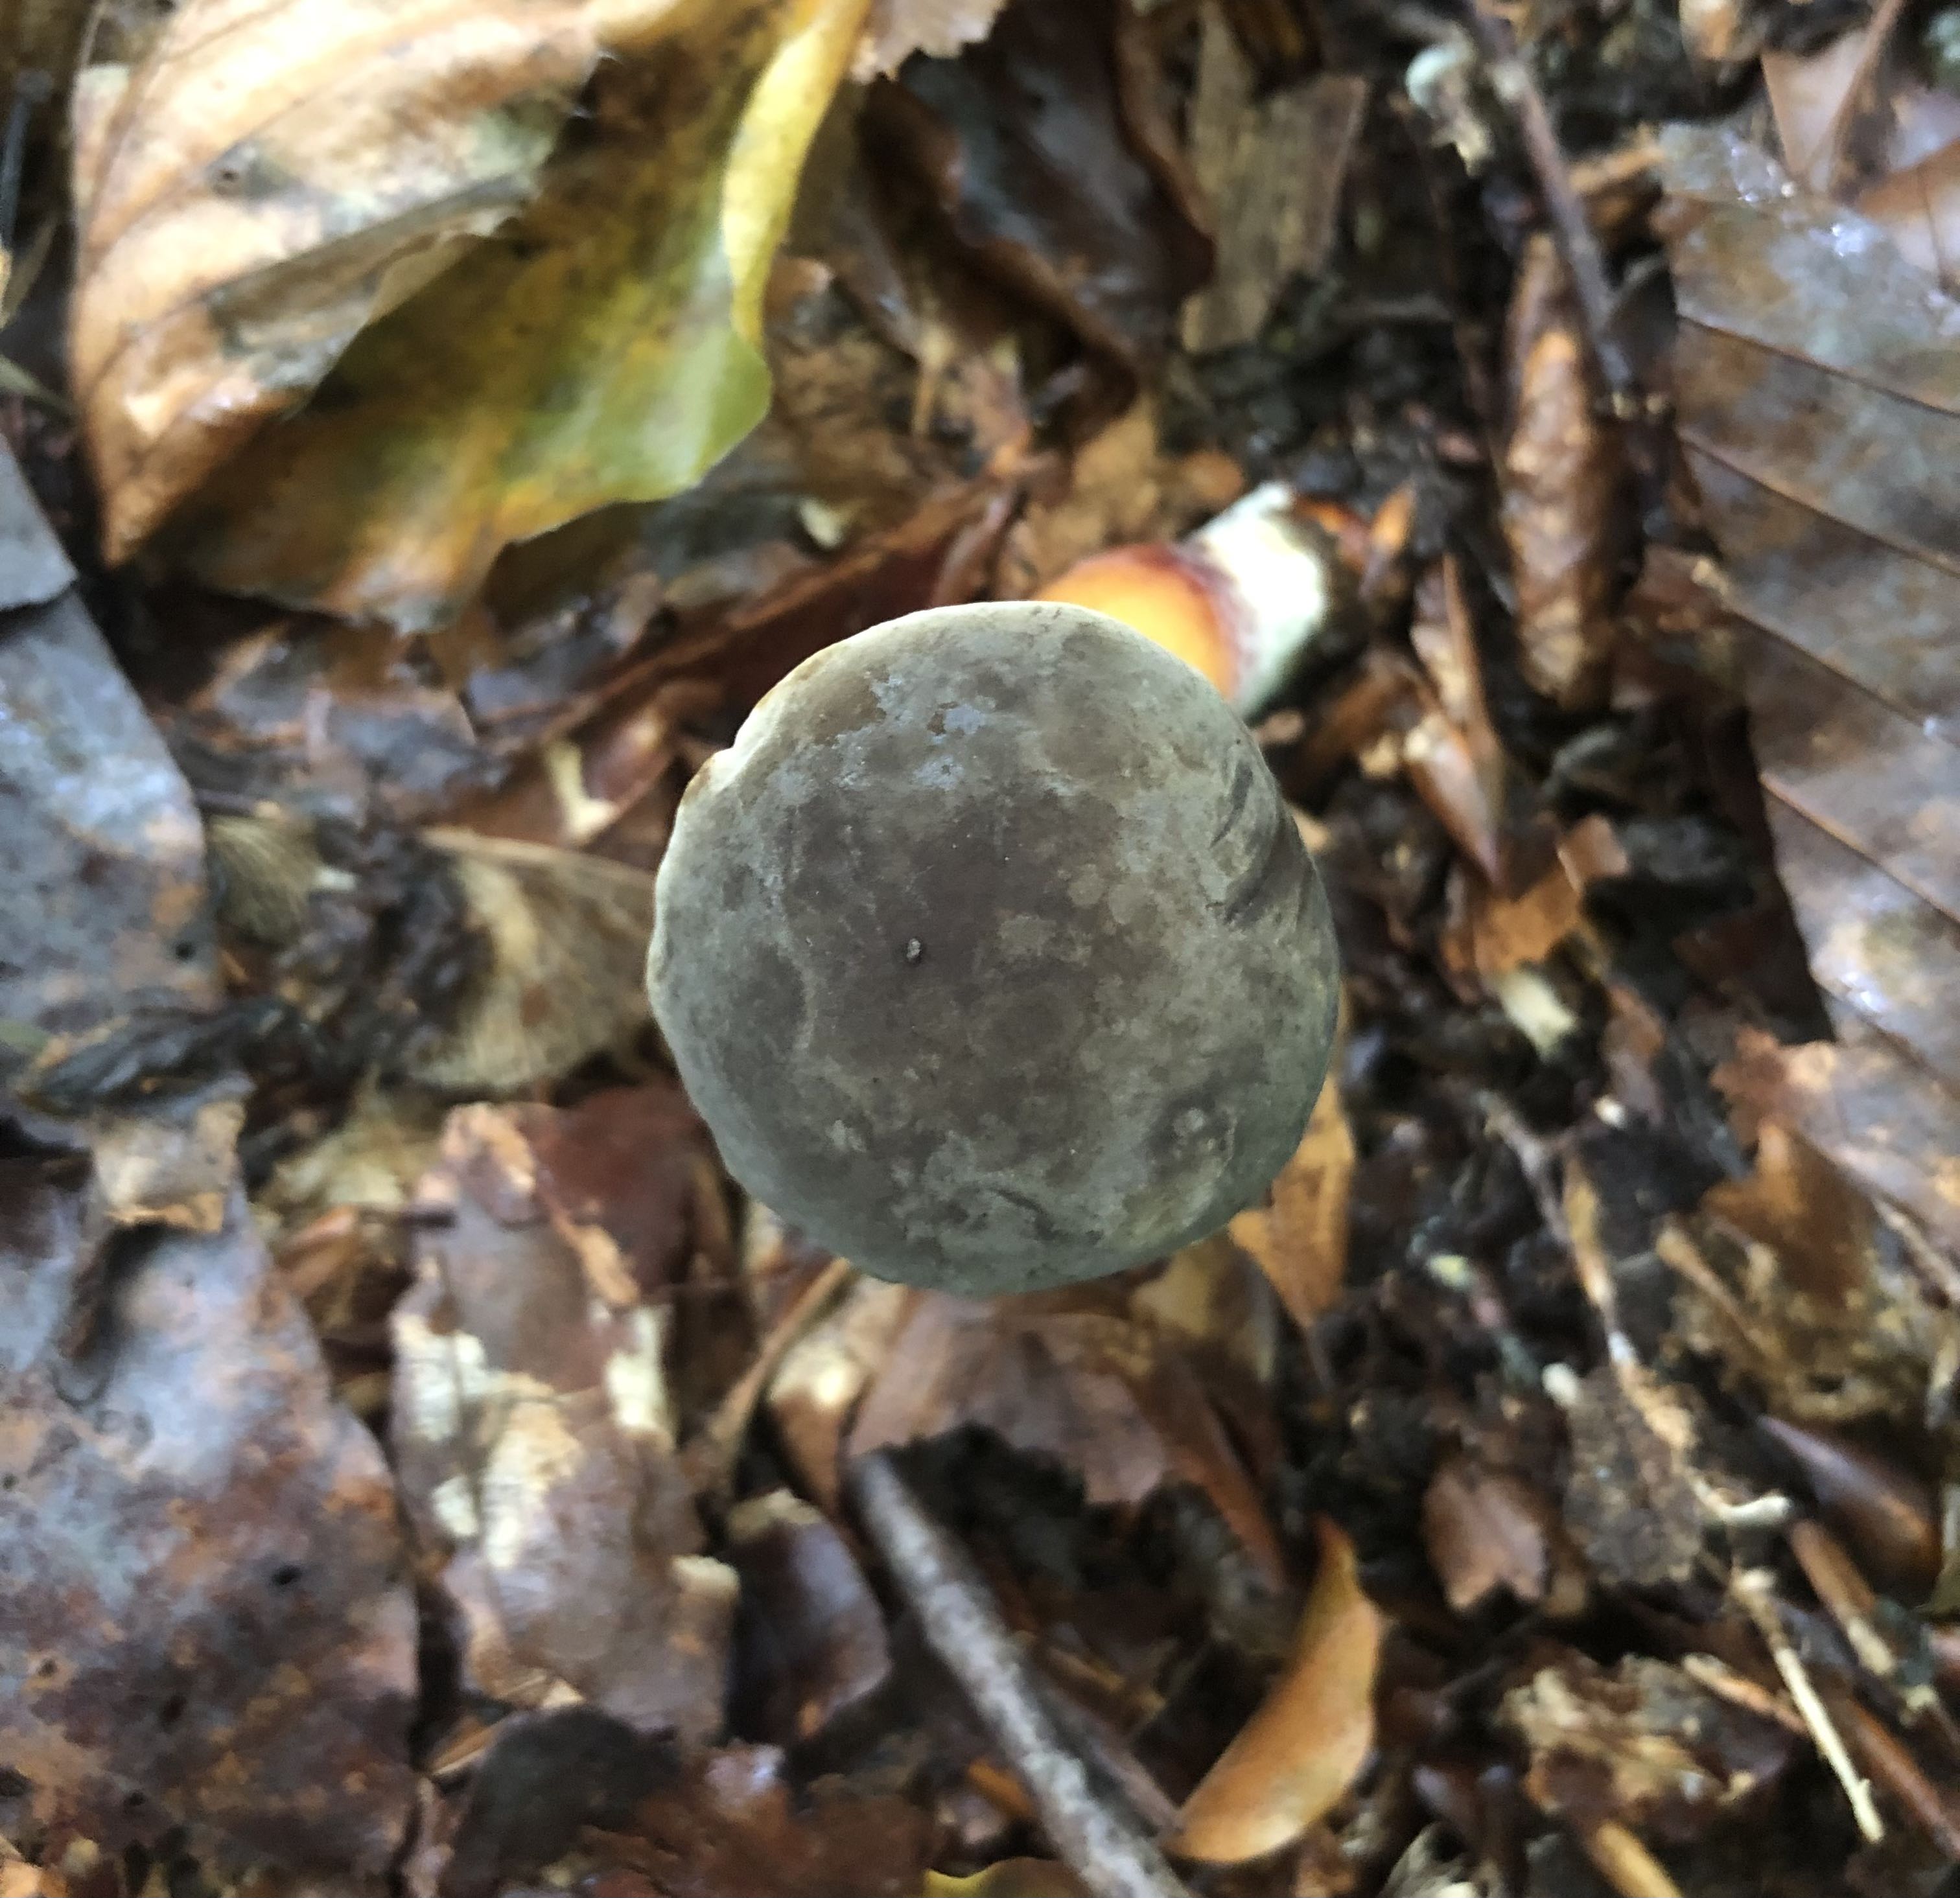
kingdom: Fungi
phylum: Basidiomycota
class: Agaricomycetes
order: Boletales
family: Boletaceae
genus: Xerocomellus
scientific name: Xerocomellus pruinatus
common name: dugget rørhat
